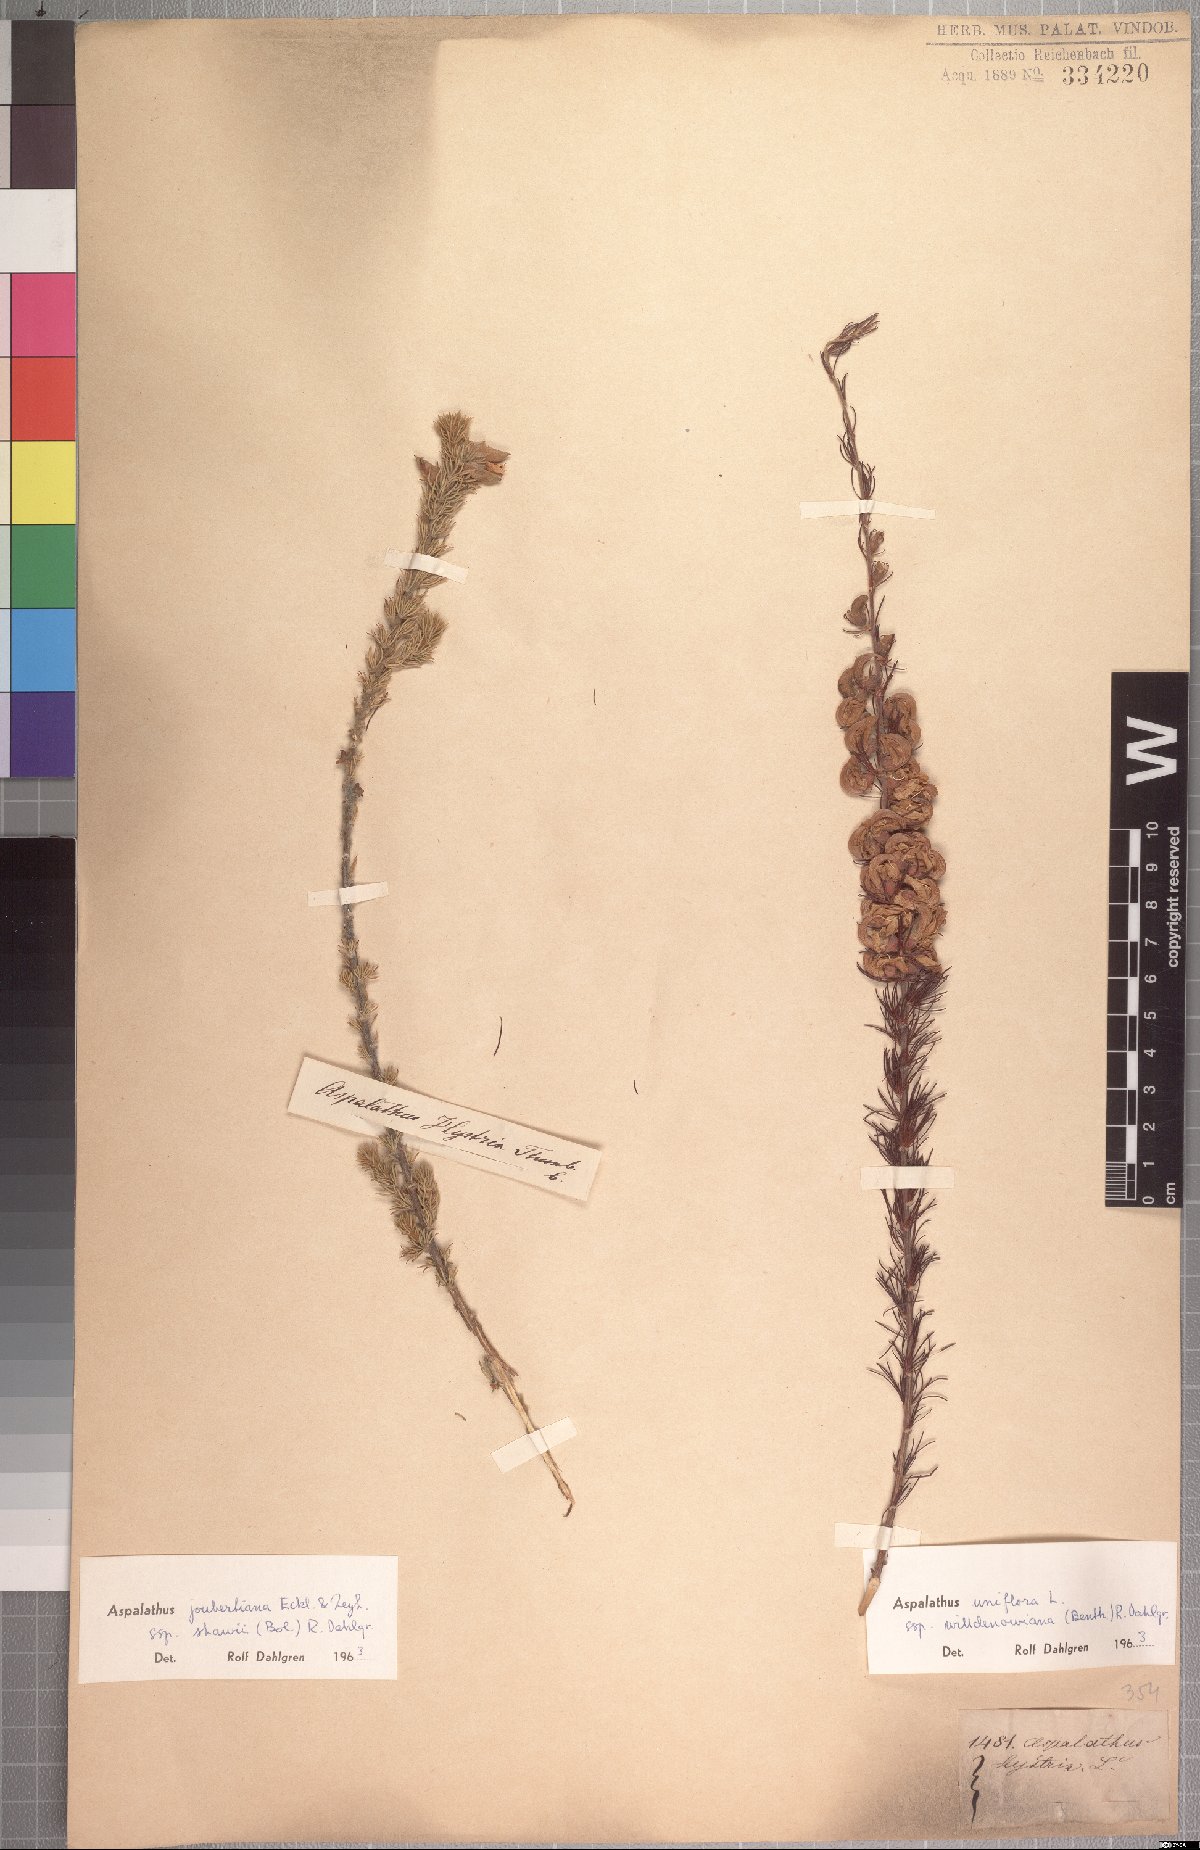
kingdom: Plantae
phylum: Tracheophyta
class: Magnoliopsida
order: Fabales
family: Fabaceae
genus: Aspalathus
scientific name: Aspalathus willdenowiana
